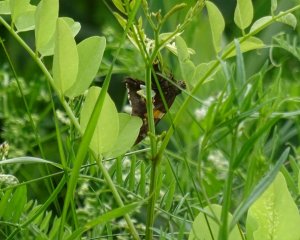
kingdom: Animalia
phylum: Arthropoda
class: Insecta
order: Lepidoptera
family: Hesperiidae
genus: Epargyreus
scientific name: Epargyreus clarus
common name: Silver-spotted Skipper
